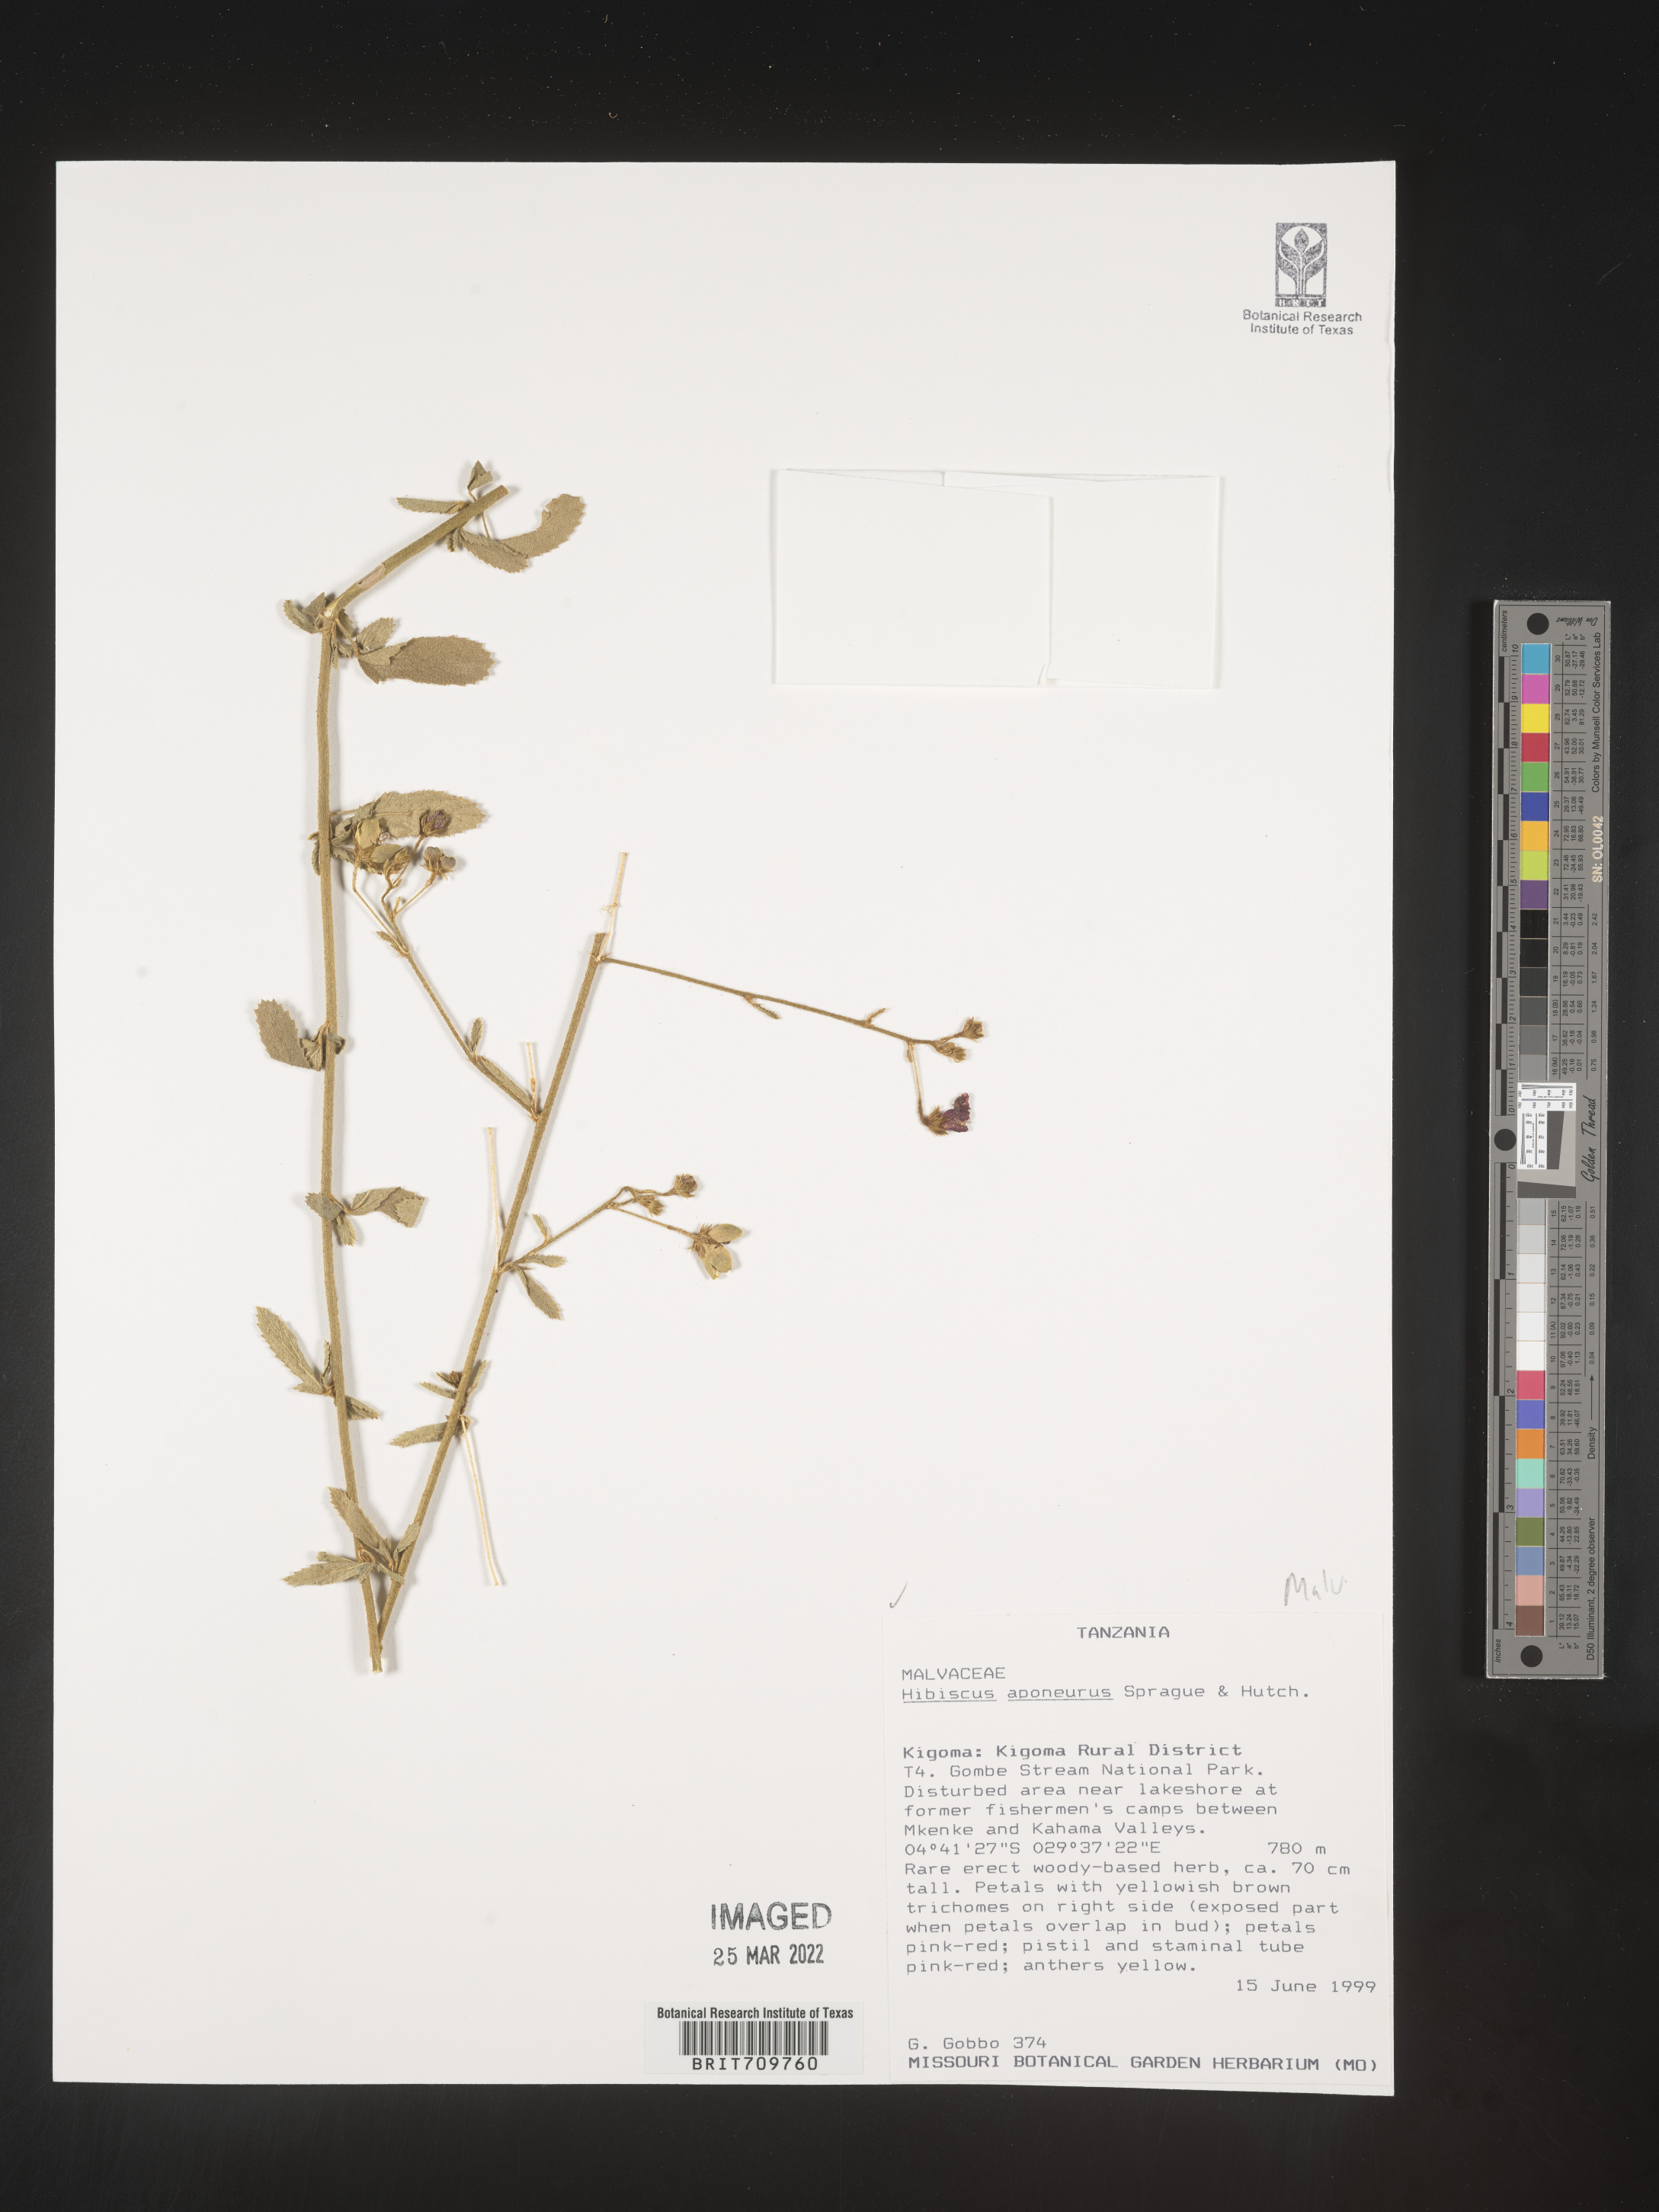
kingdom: Plantae
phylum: Tracheophyta
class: Magnoliopsida
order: Malvales
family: Malvaceae
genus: Hibiscus
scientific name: Hibiscus
